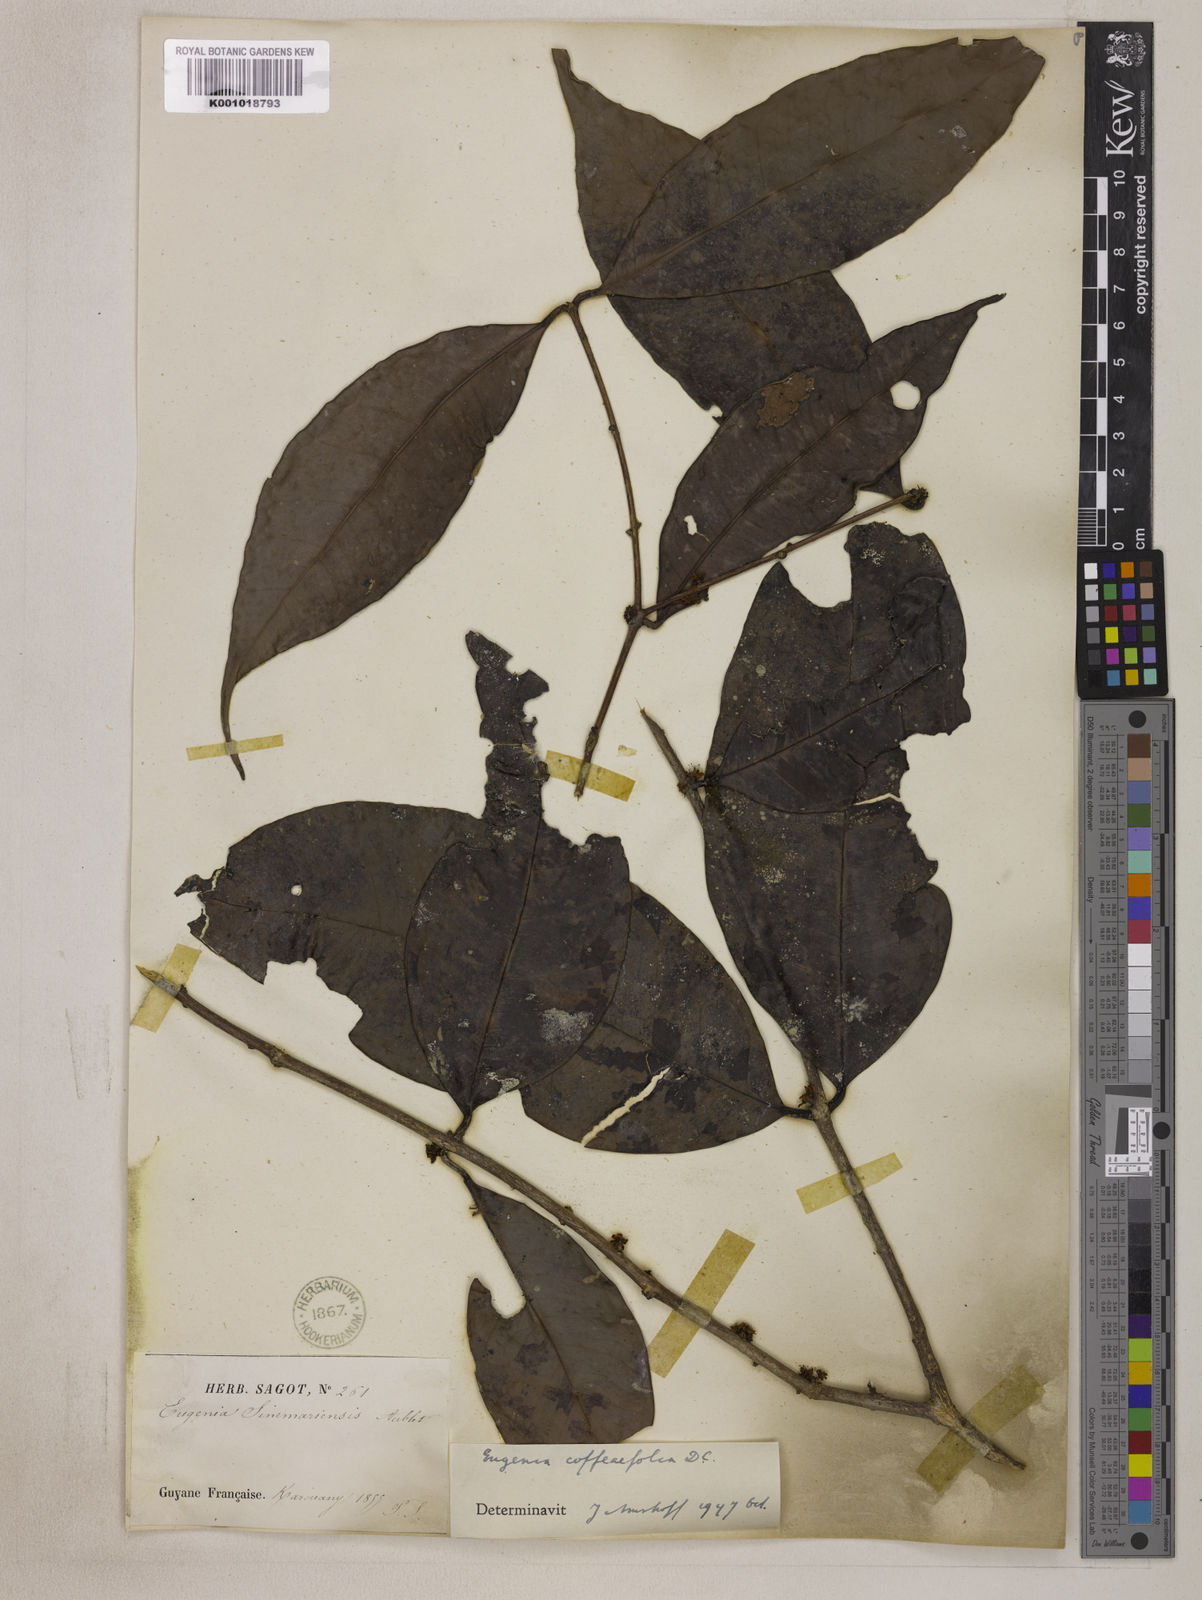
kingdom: Plantae
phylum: Tracheophyta
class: Magnoliopsida
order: Myrtales
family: Myrtaceae
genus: Eugenia
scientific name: Eugenia coffeifolia
